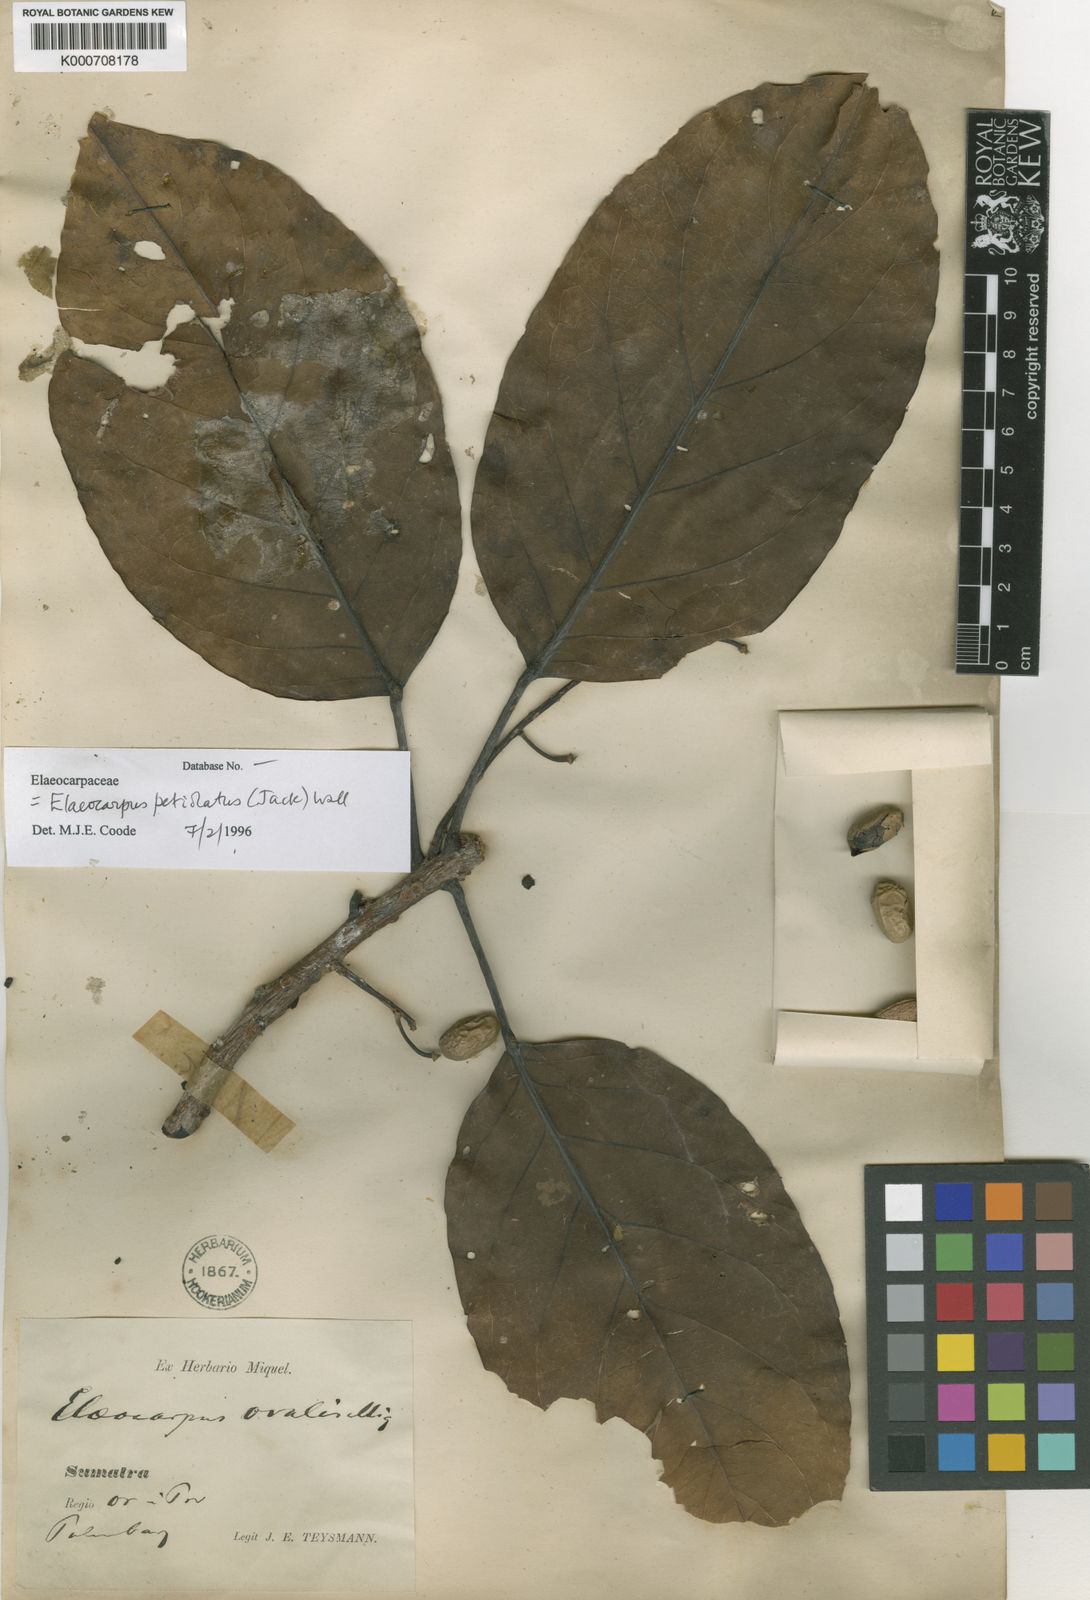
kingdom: Plantae
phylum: Tracheophyta
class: Magnoliopsida
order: Oxalidales
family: Elaeocarpaceae
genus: Elaeocarpus
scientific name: Elaeocarpus petiolatus
